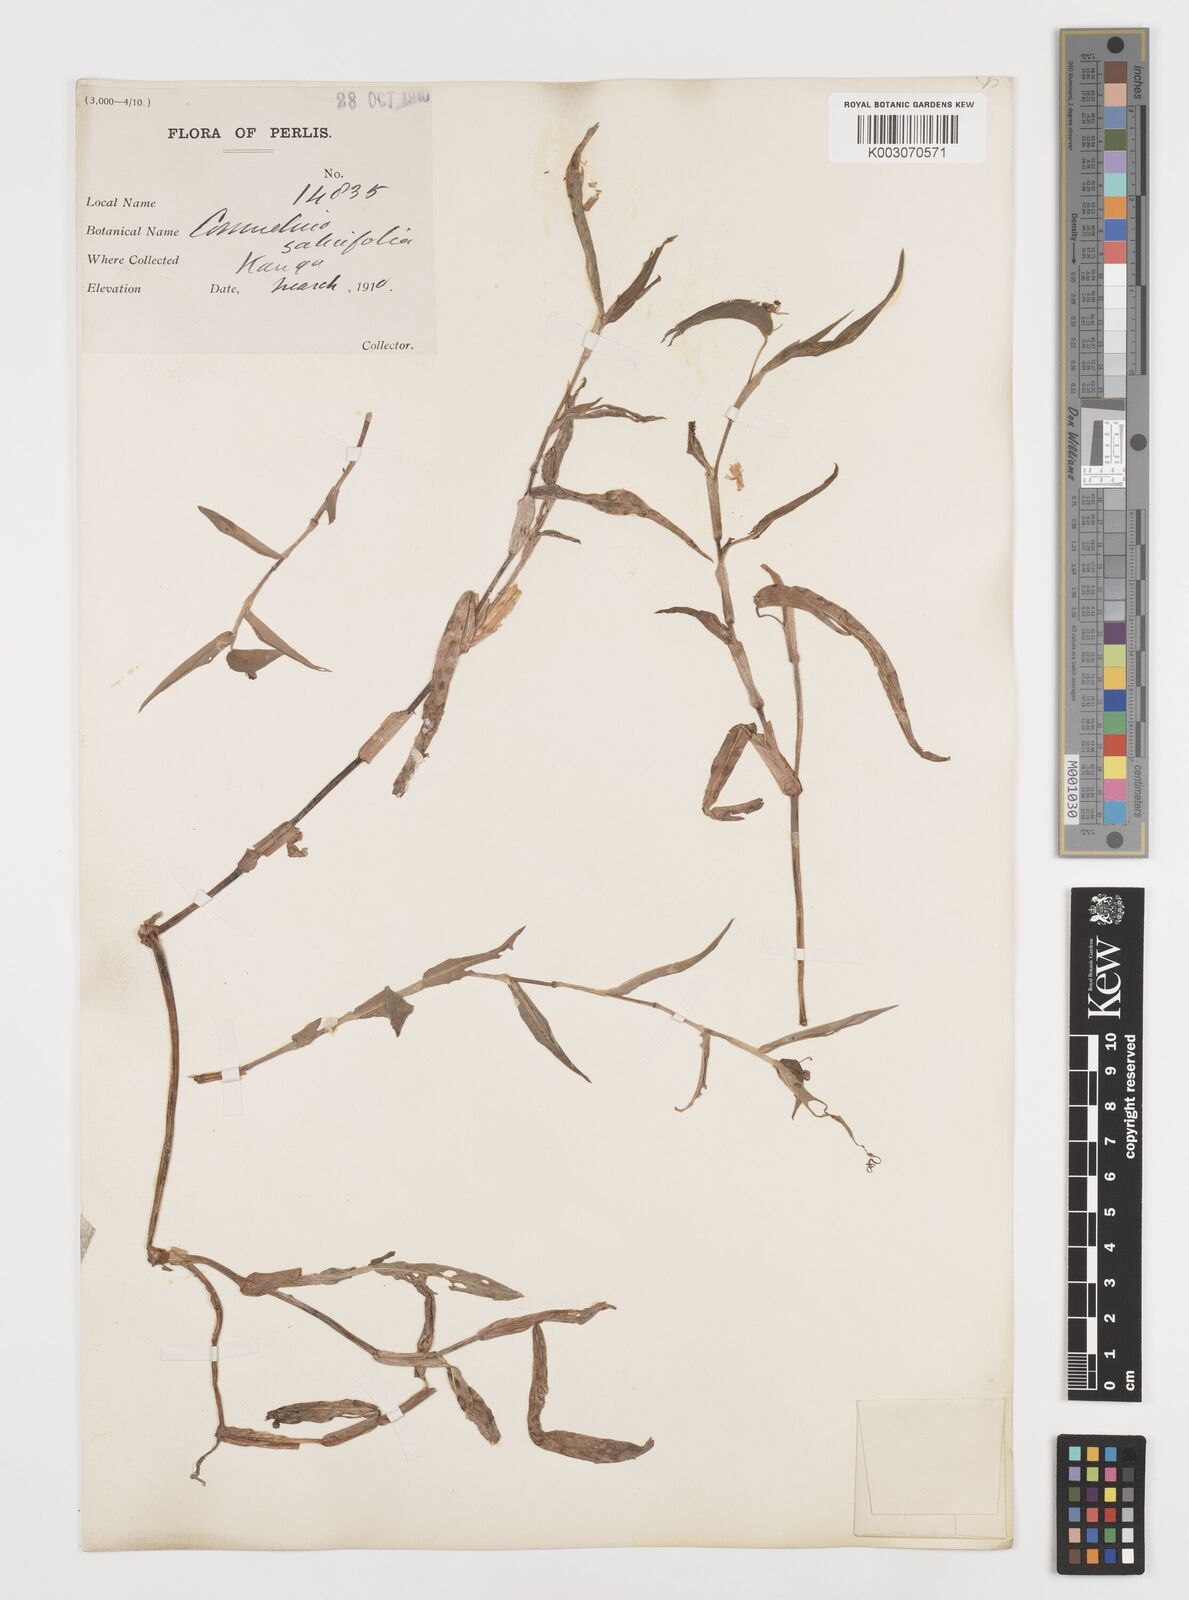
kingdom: Plantae
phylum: Tracheophyta
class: Liliopsida
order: Commelinales
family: Commelinaceae
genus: Commelina
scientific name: Commelina
